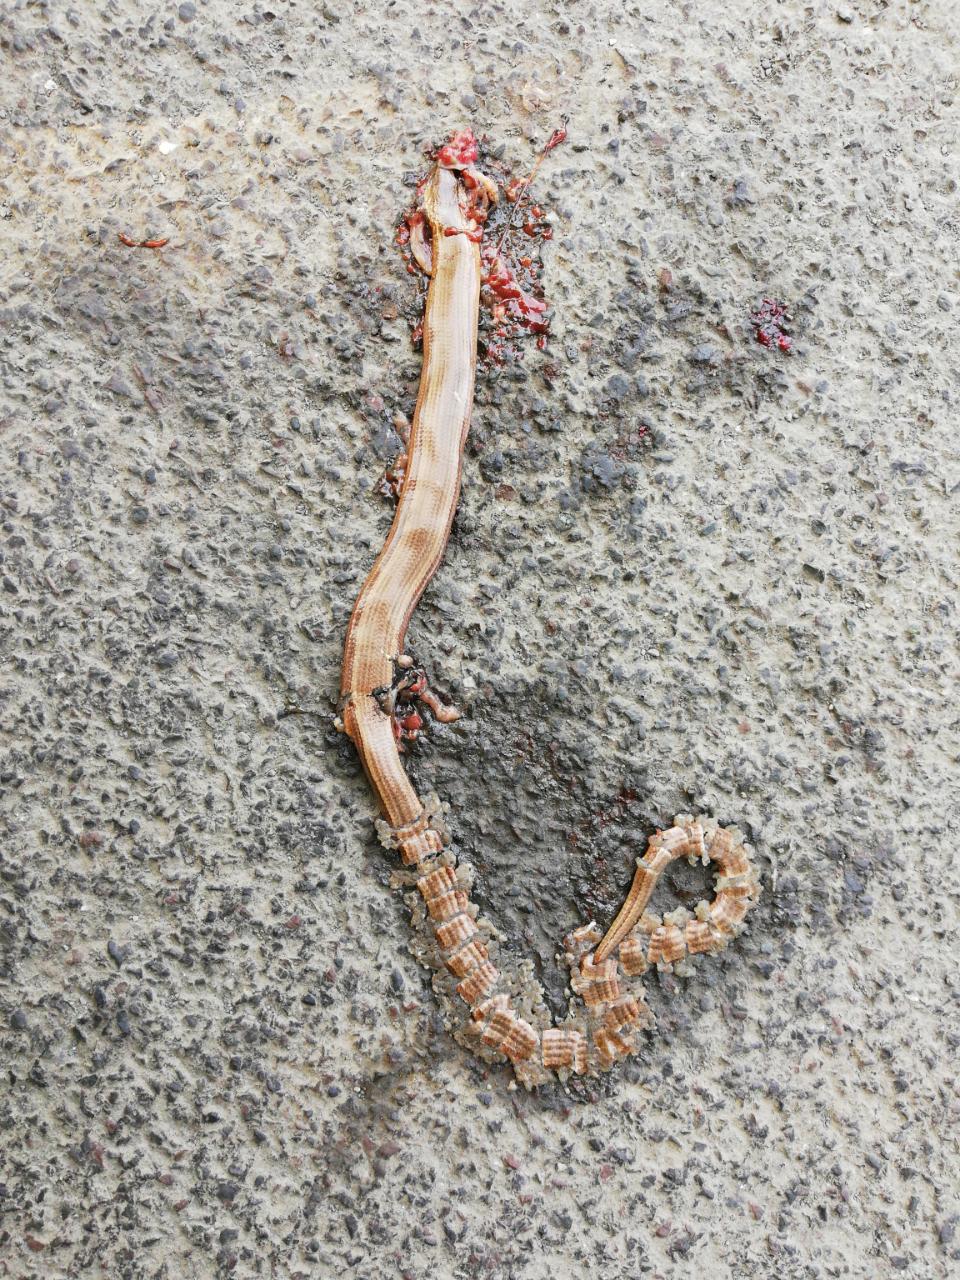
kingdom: Animalia
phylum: Chordata
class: Squamata
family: Anguidae
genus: Anguis
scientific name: Anguis fragilis
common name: Slow worm
